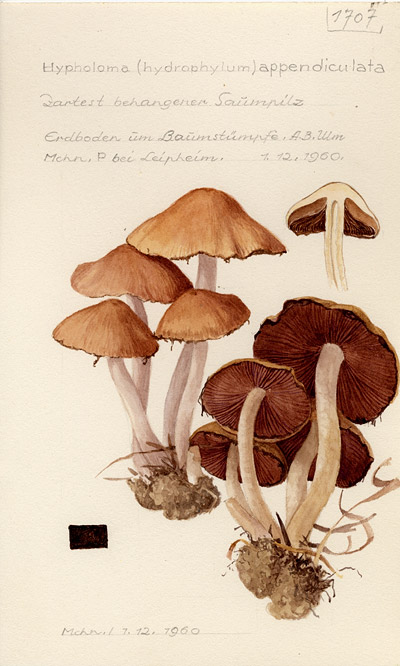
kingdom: Fungi
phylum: Basidiomycota
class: Agaricomycetes
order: Agaricales
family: Psathyrellaceae
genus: Psathyrella
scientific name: Psathyrella piluliformis
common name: Common stump brittlestem
